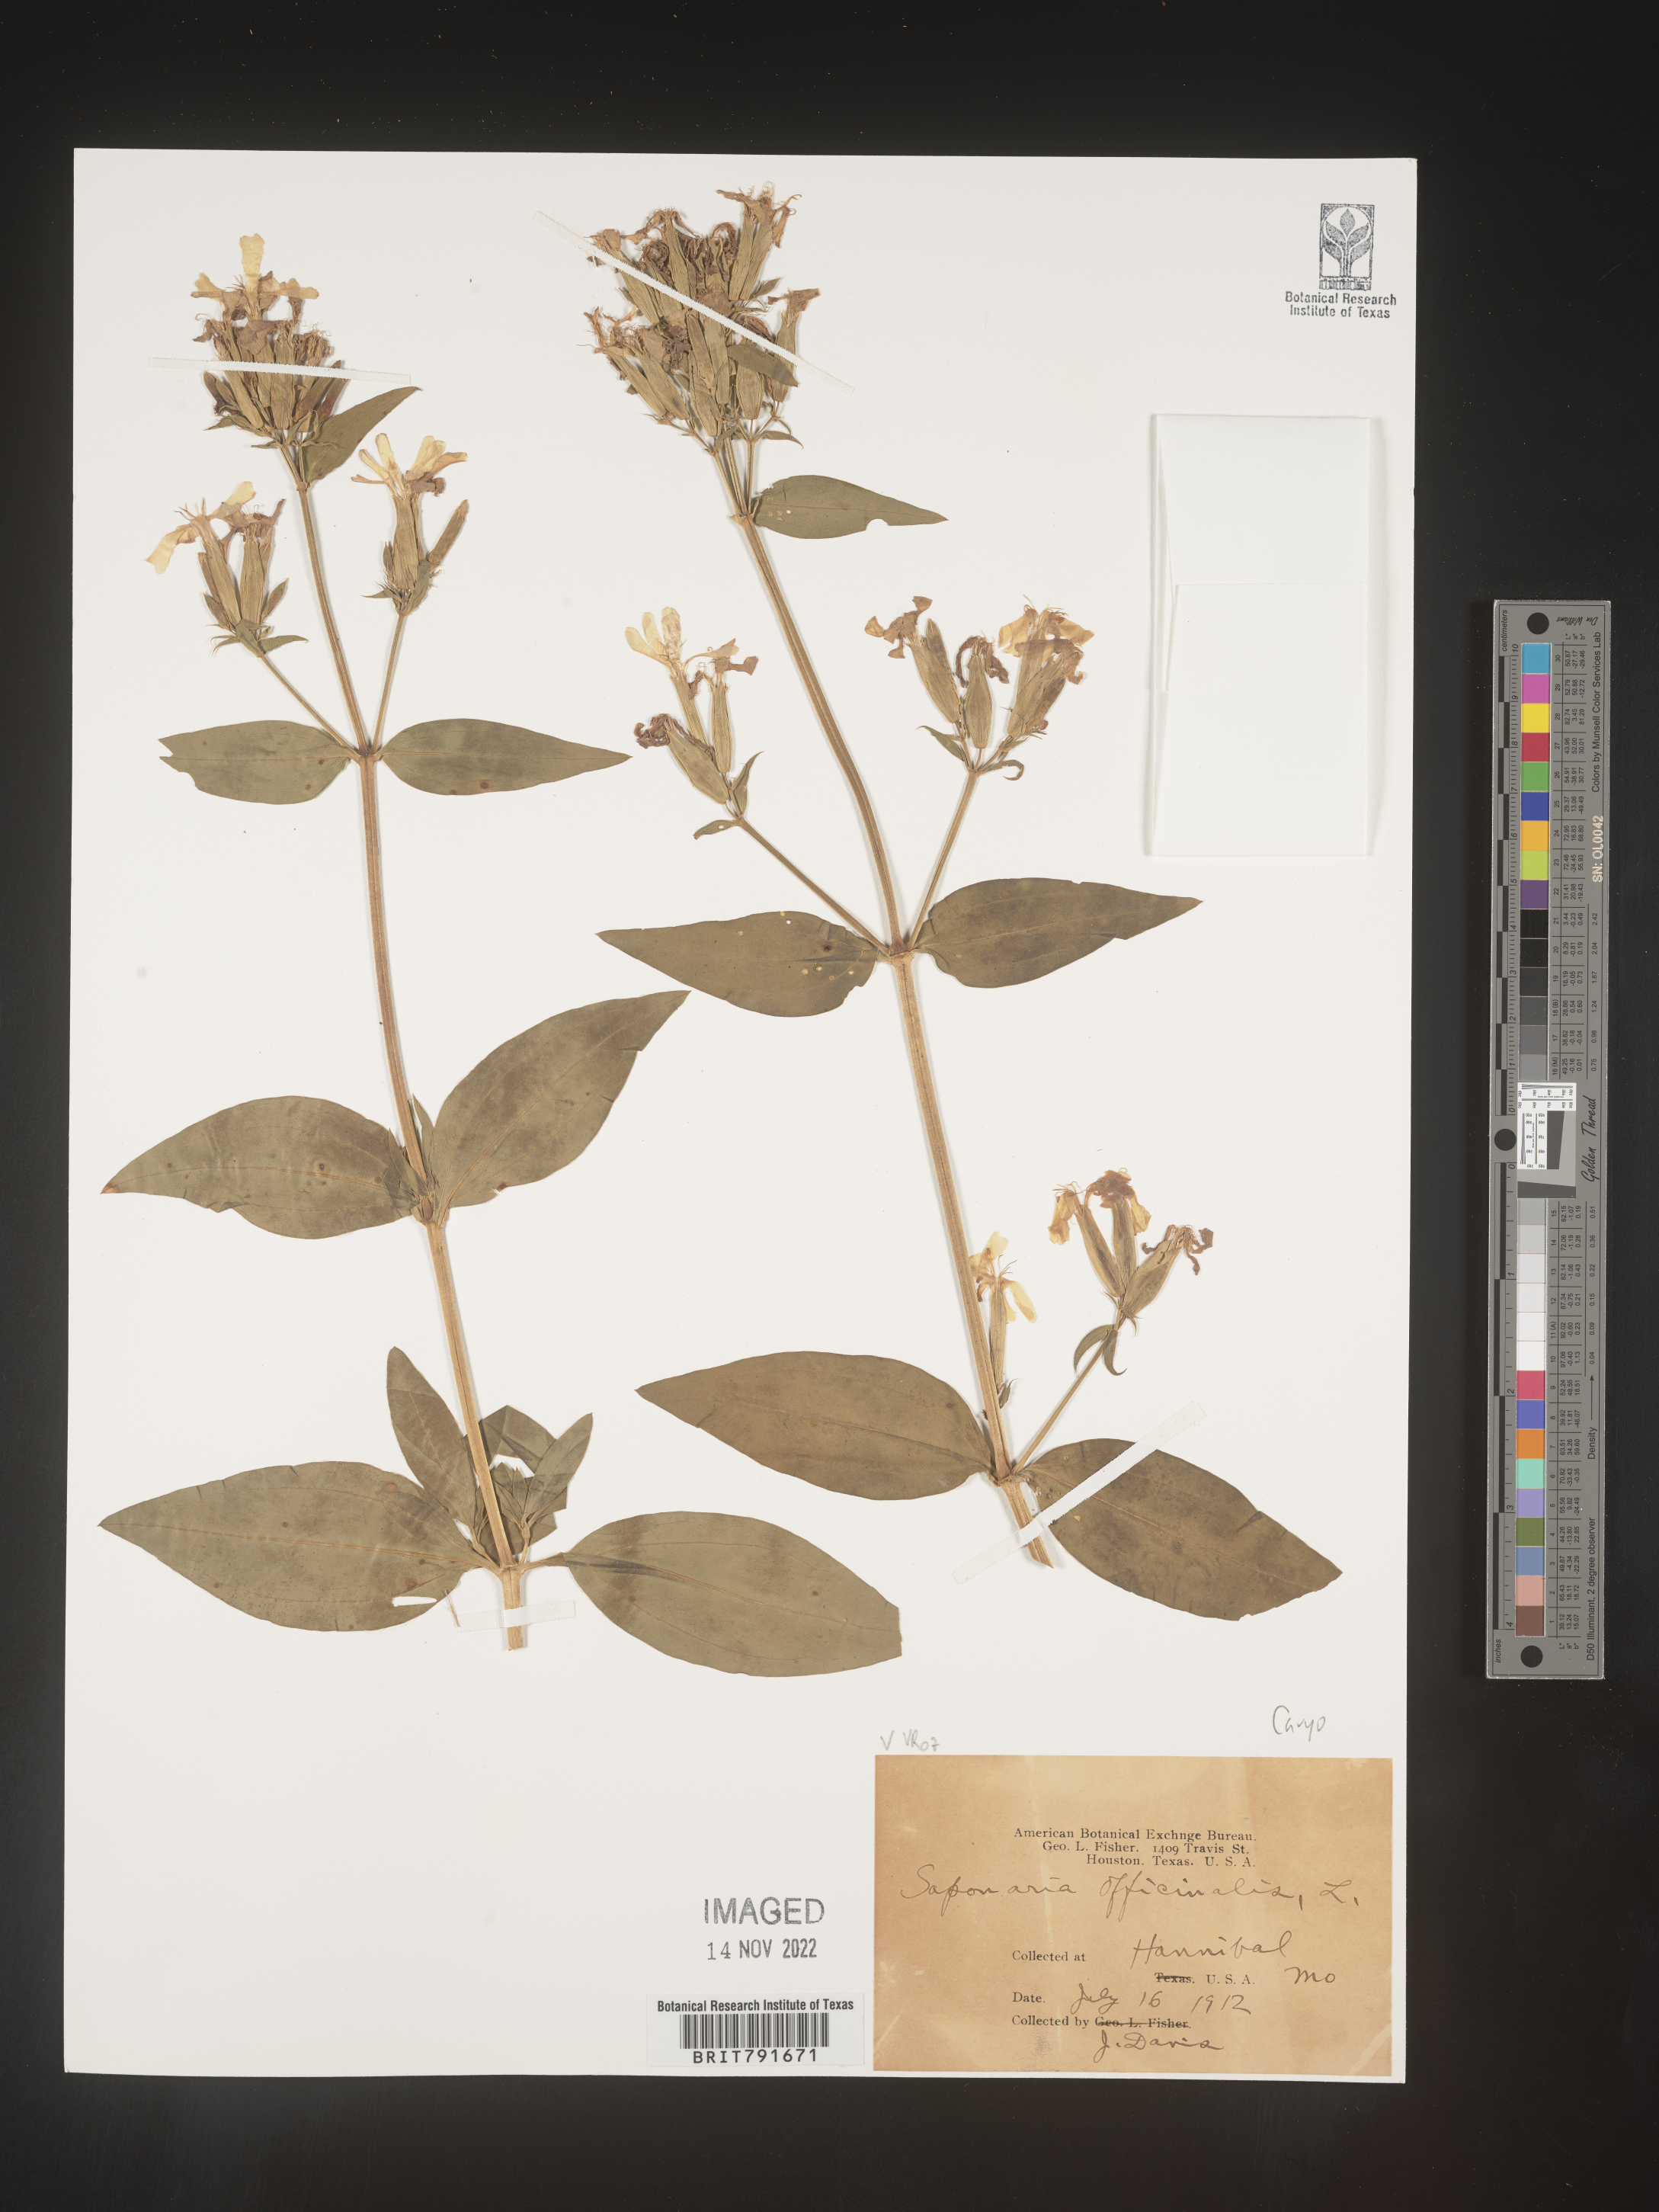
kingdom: Plantae
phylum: Tracheophyta
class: Magnoliopsida
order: Caryophyllales
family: Caryophyllaceae
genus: Saponaria
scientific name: Saponaria officinalis
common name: Soapwort
